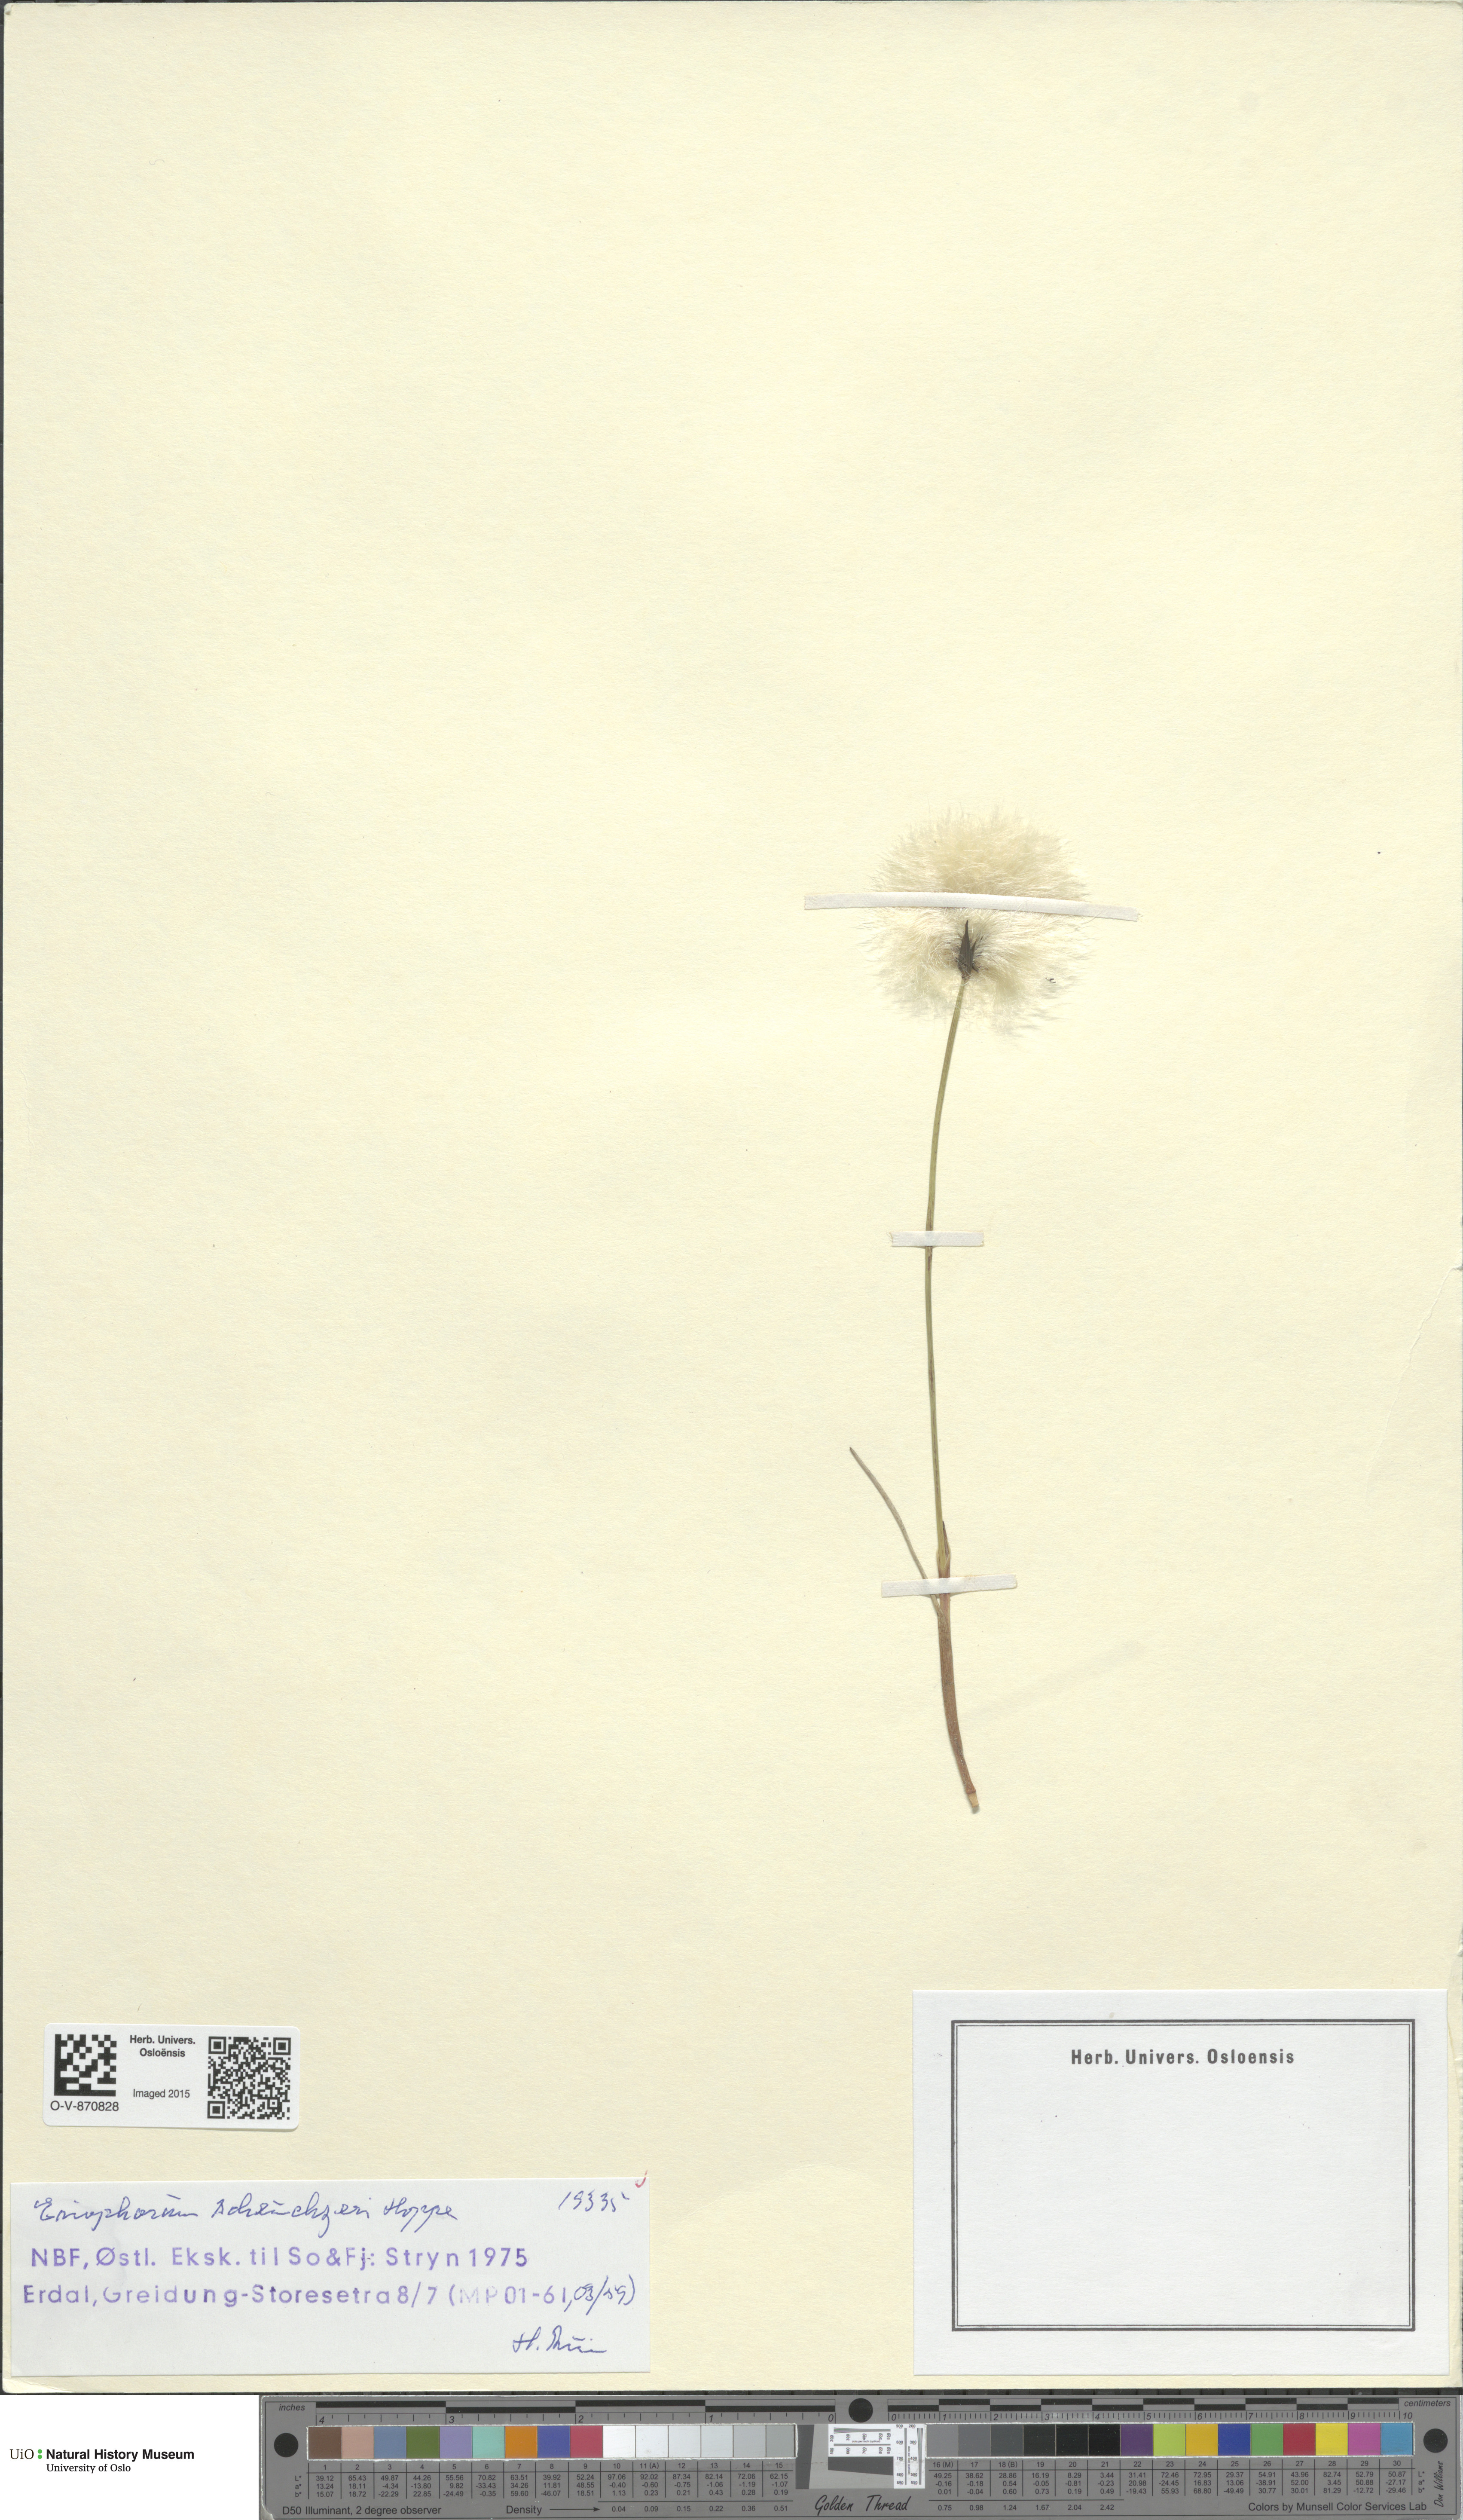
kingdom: Plantae
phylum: Tracheophyta
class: Liliopsida
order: Poales
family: Cyperaceae
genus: Eriophorum
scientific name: Eriophorum scheuchzeri
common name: Scheuchzer's cottongrass
